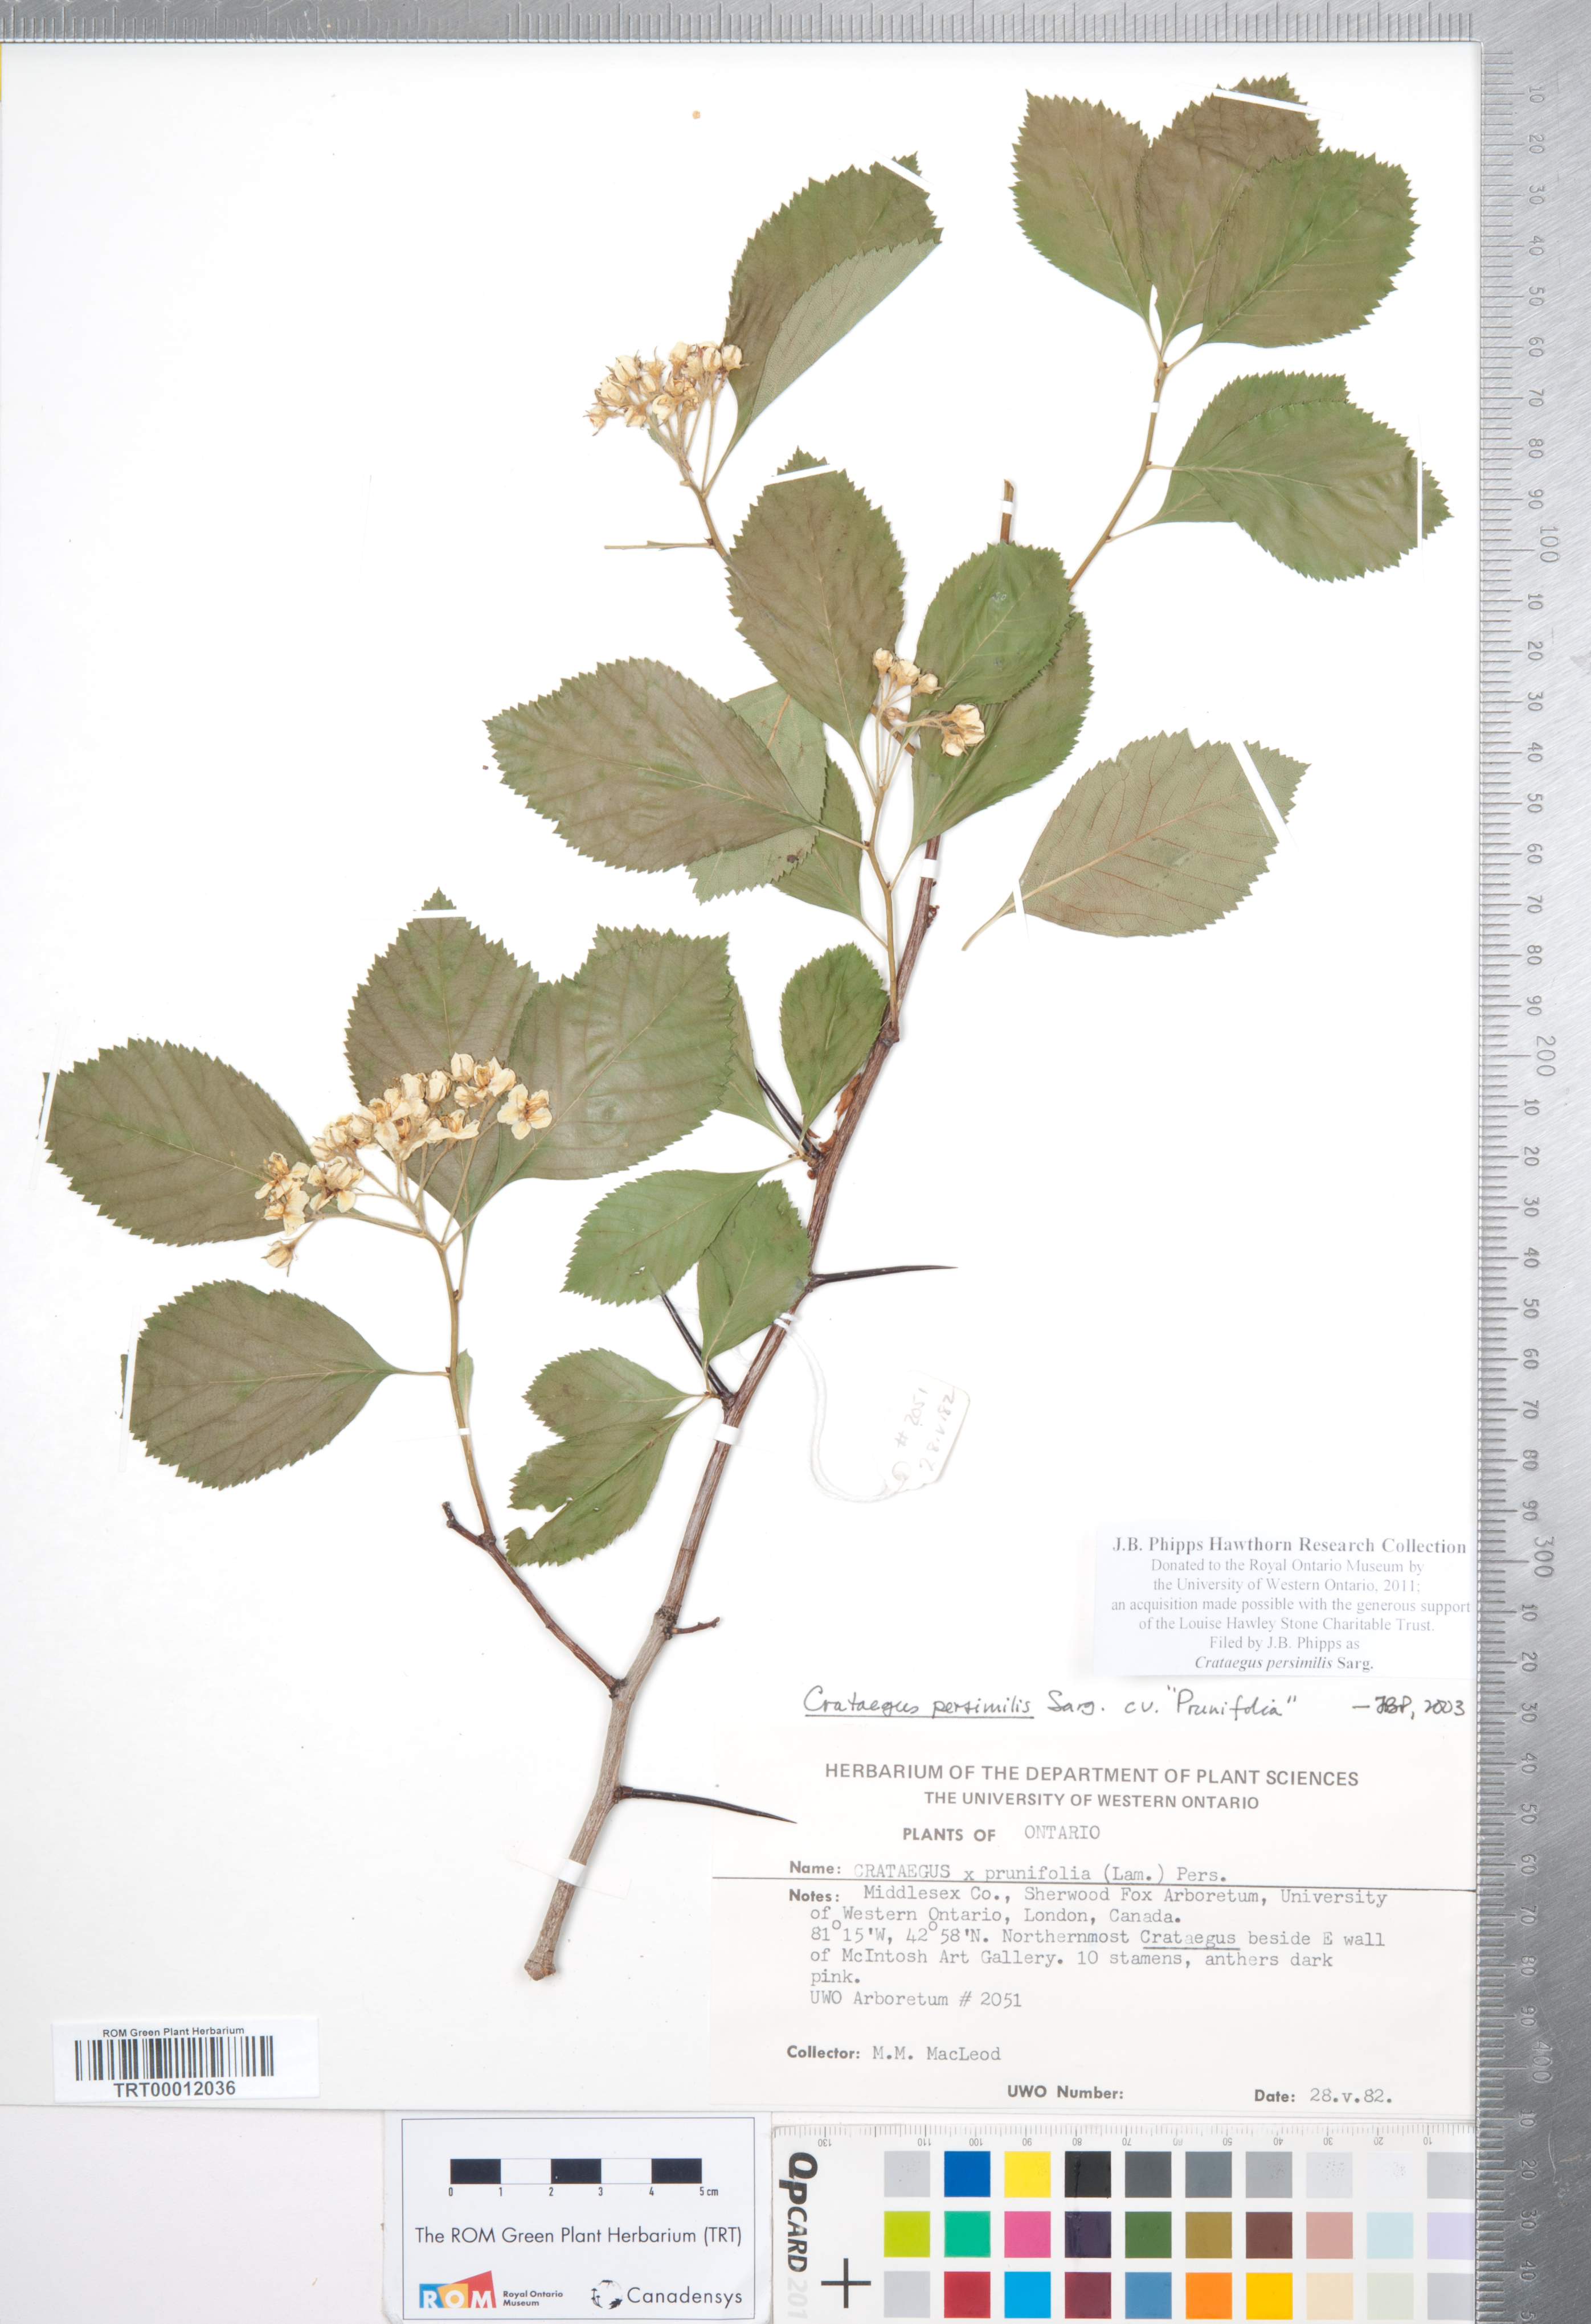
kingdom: Plantae
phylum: Tracheophyta
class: Magnoliopsida
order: Rosales
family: Rosaceae
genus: Crataegus
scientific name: Crataegus persimilis
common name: Broad-leaved cockspurthorn
